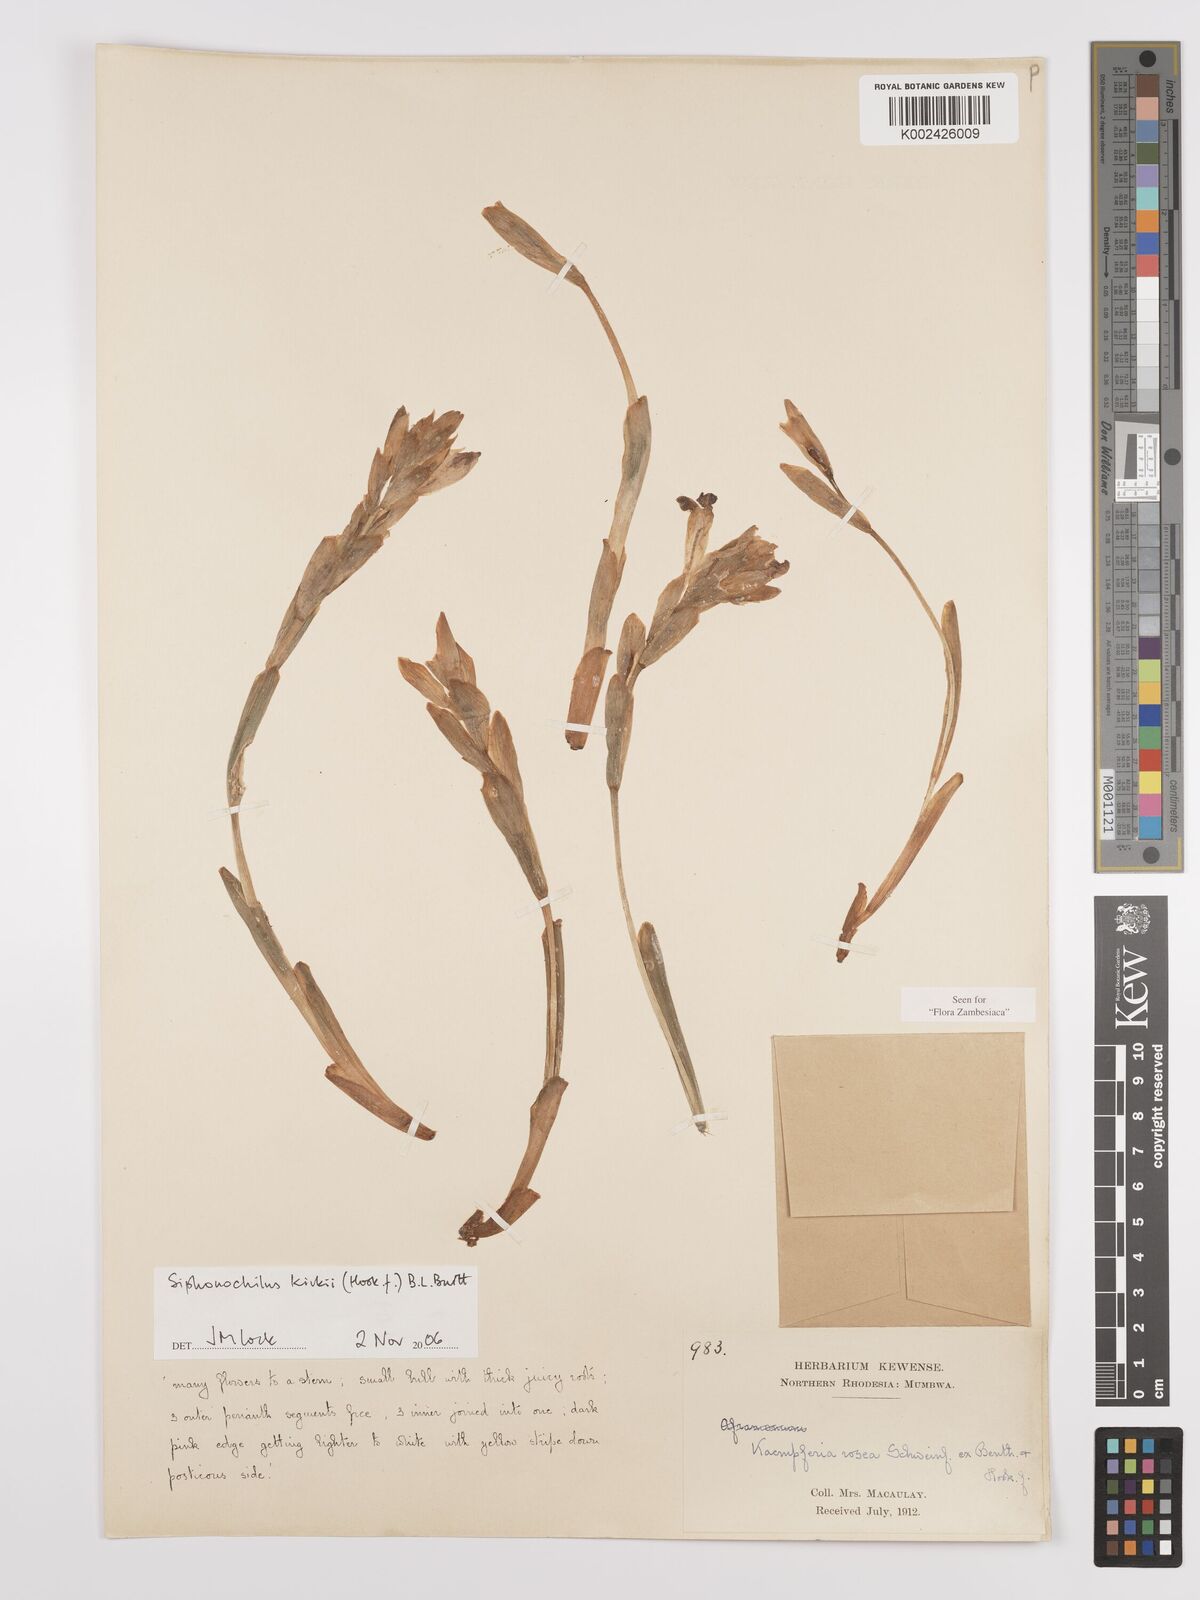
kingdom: Plantae
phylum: Tracheophyta
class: Liliopsida
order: Zingiberales
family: Zingiberaceae
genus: Siphonochilus
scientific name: Siphonochilus kirkii
